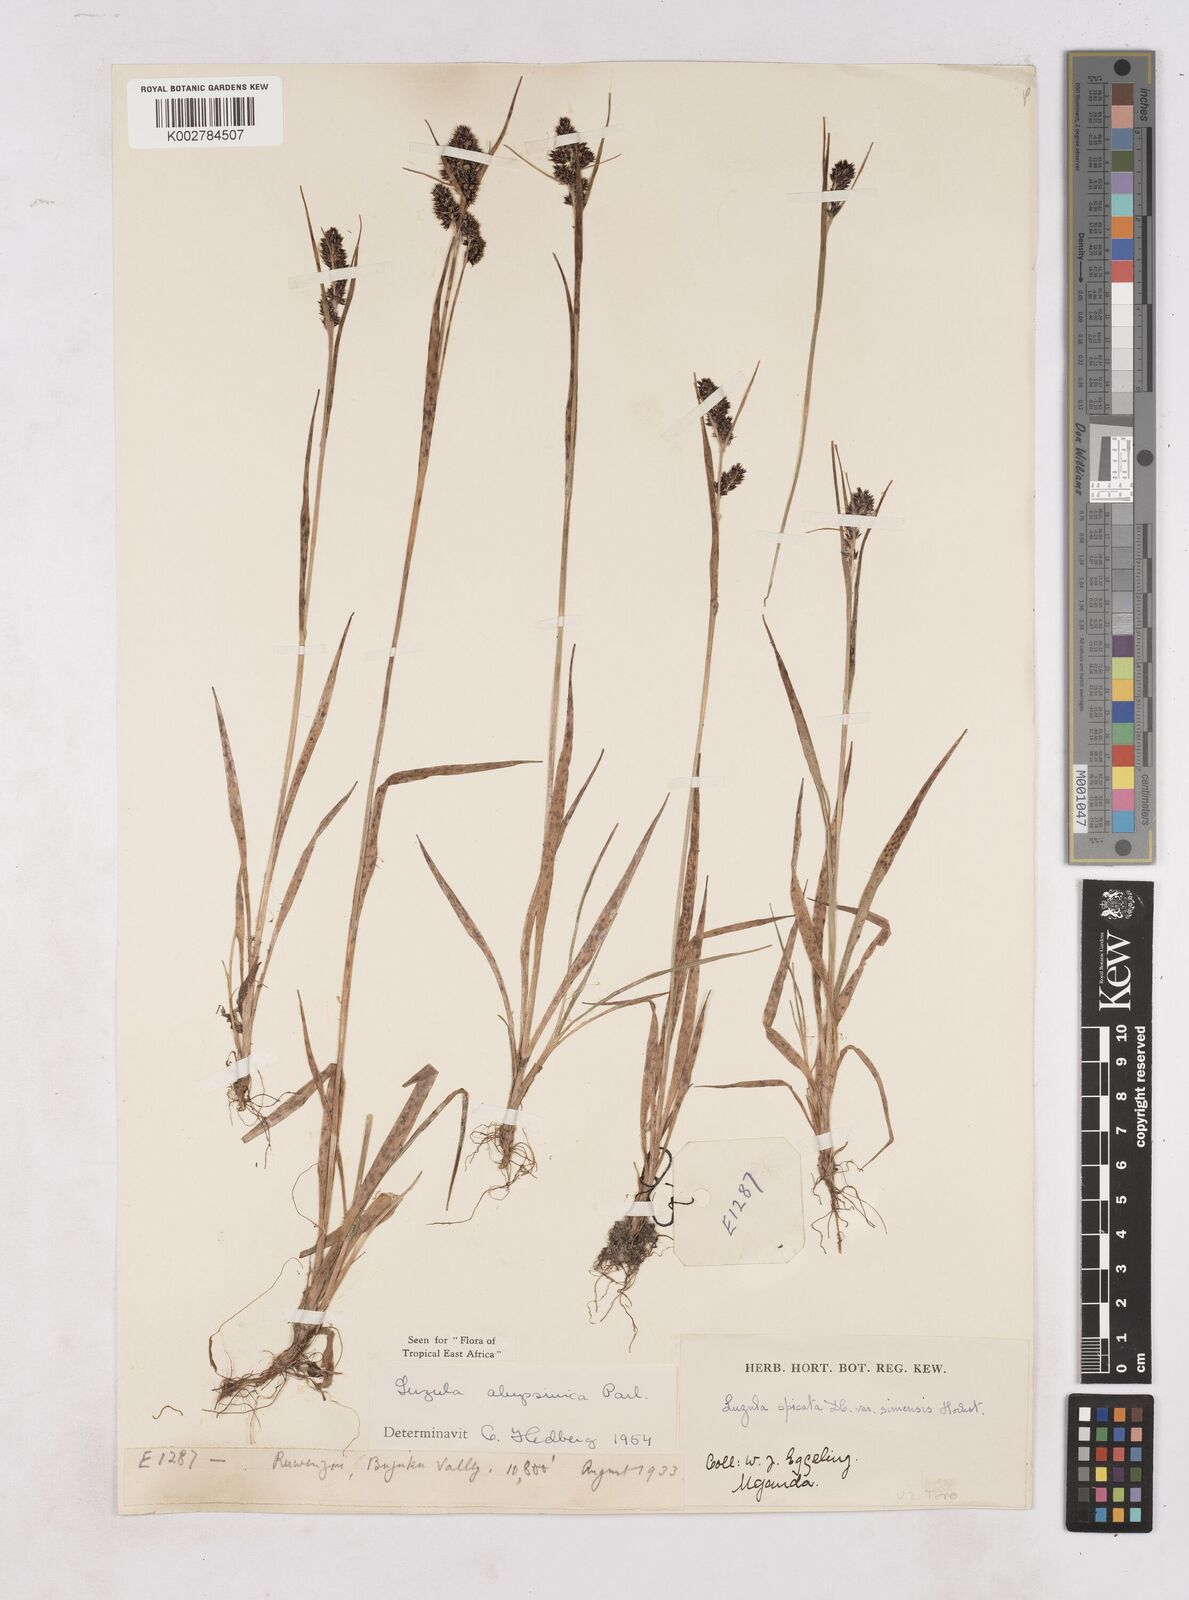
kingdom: Plantae
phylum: Tracheophyta
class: Liliopsida
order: Poales
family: Juncaceae
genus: Luzula
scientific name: Luzula abyssinica
